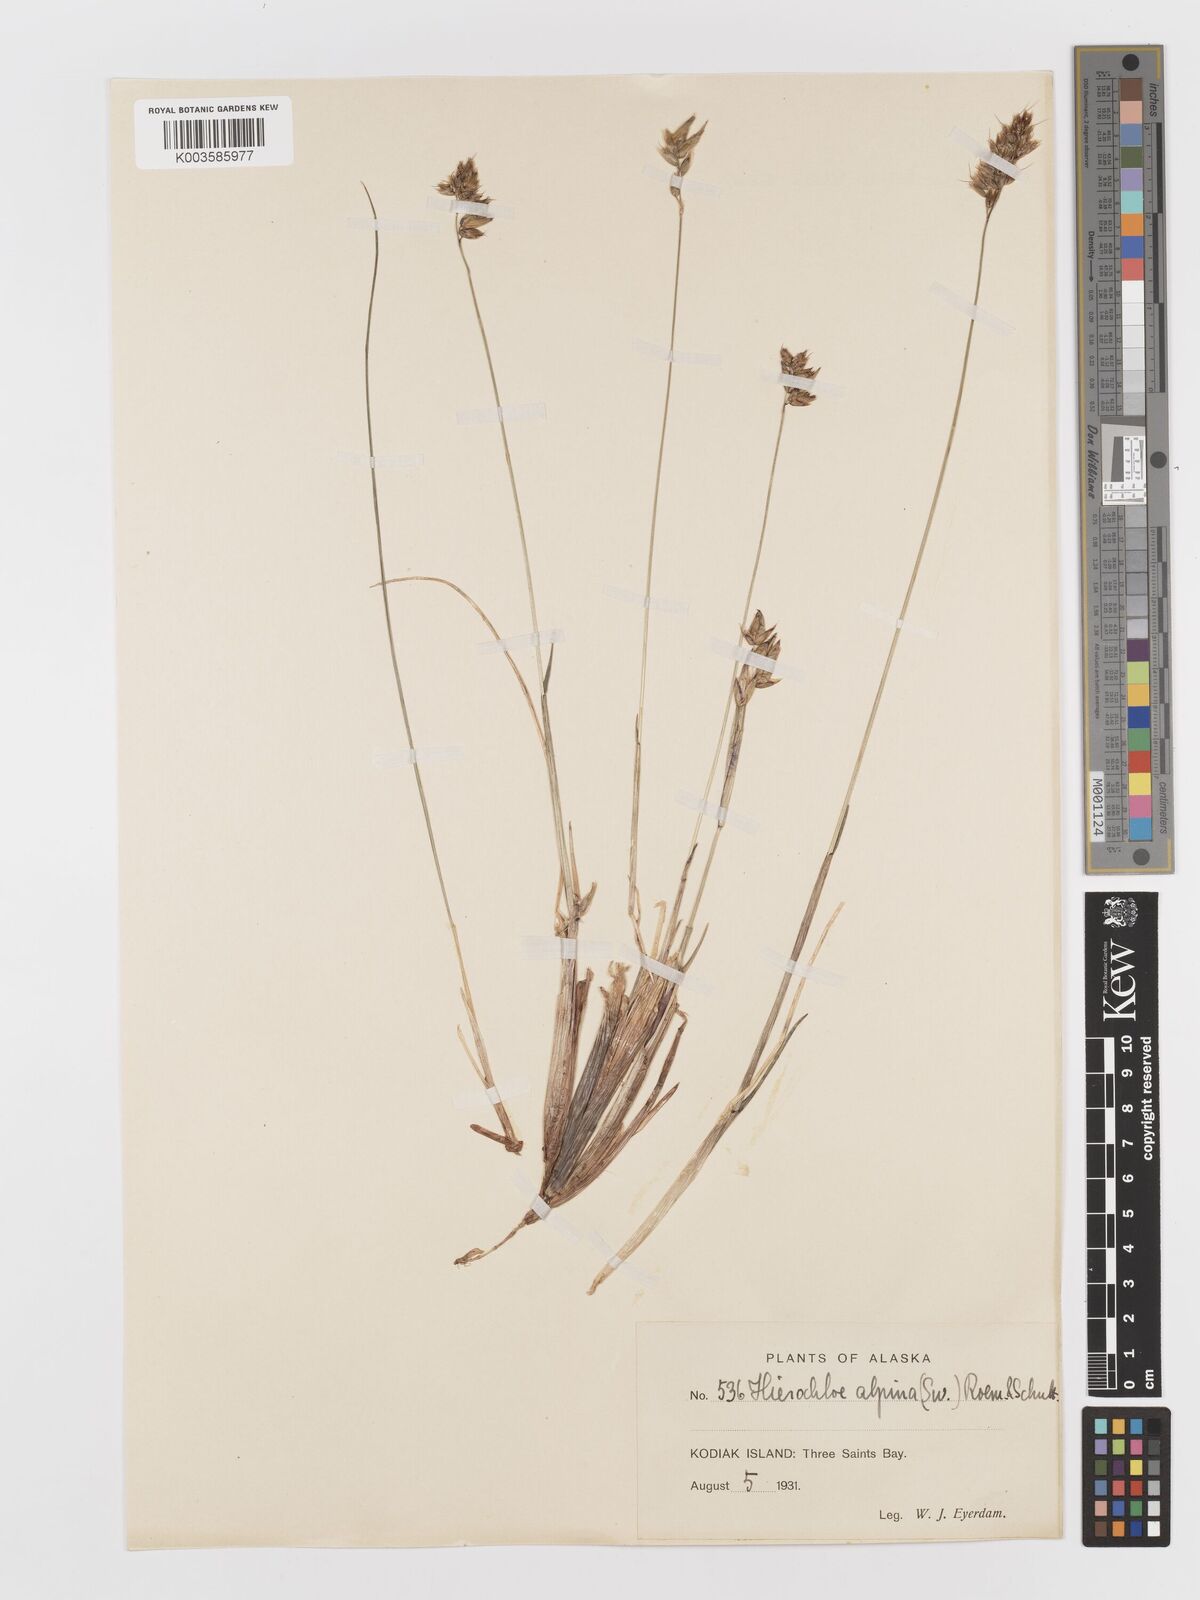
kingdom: Plantae
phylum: Tracheophyta
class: Liliopsida
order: Poales
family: Poaceae
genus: Anthoxanthum
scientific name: Anthoxanthum monticola
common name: Alpine sweetgrass
